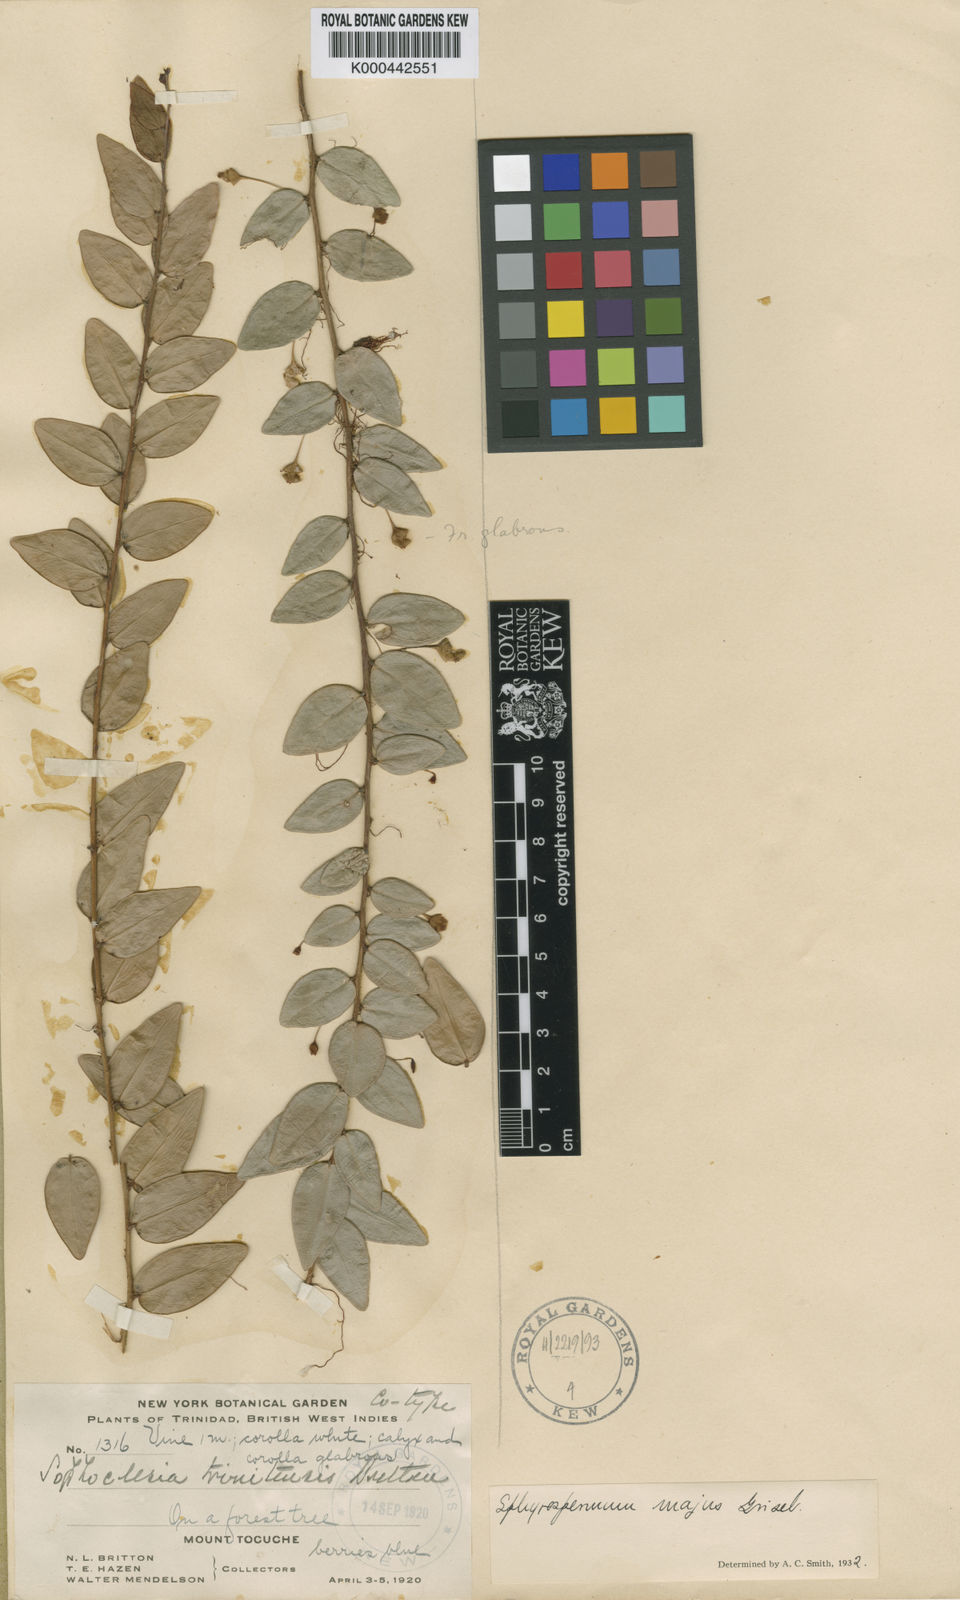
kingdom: Plantae
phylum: Tracheophyta
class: Magnoliopsida
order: Ericales
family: Ericaceae
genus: Sphyrospermum
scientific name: Sphyrospermum cordifolium
